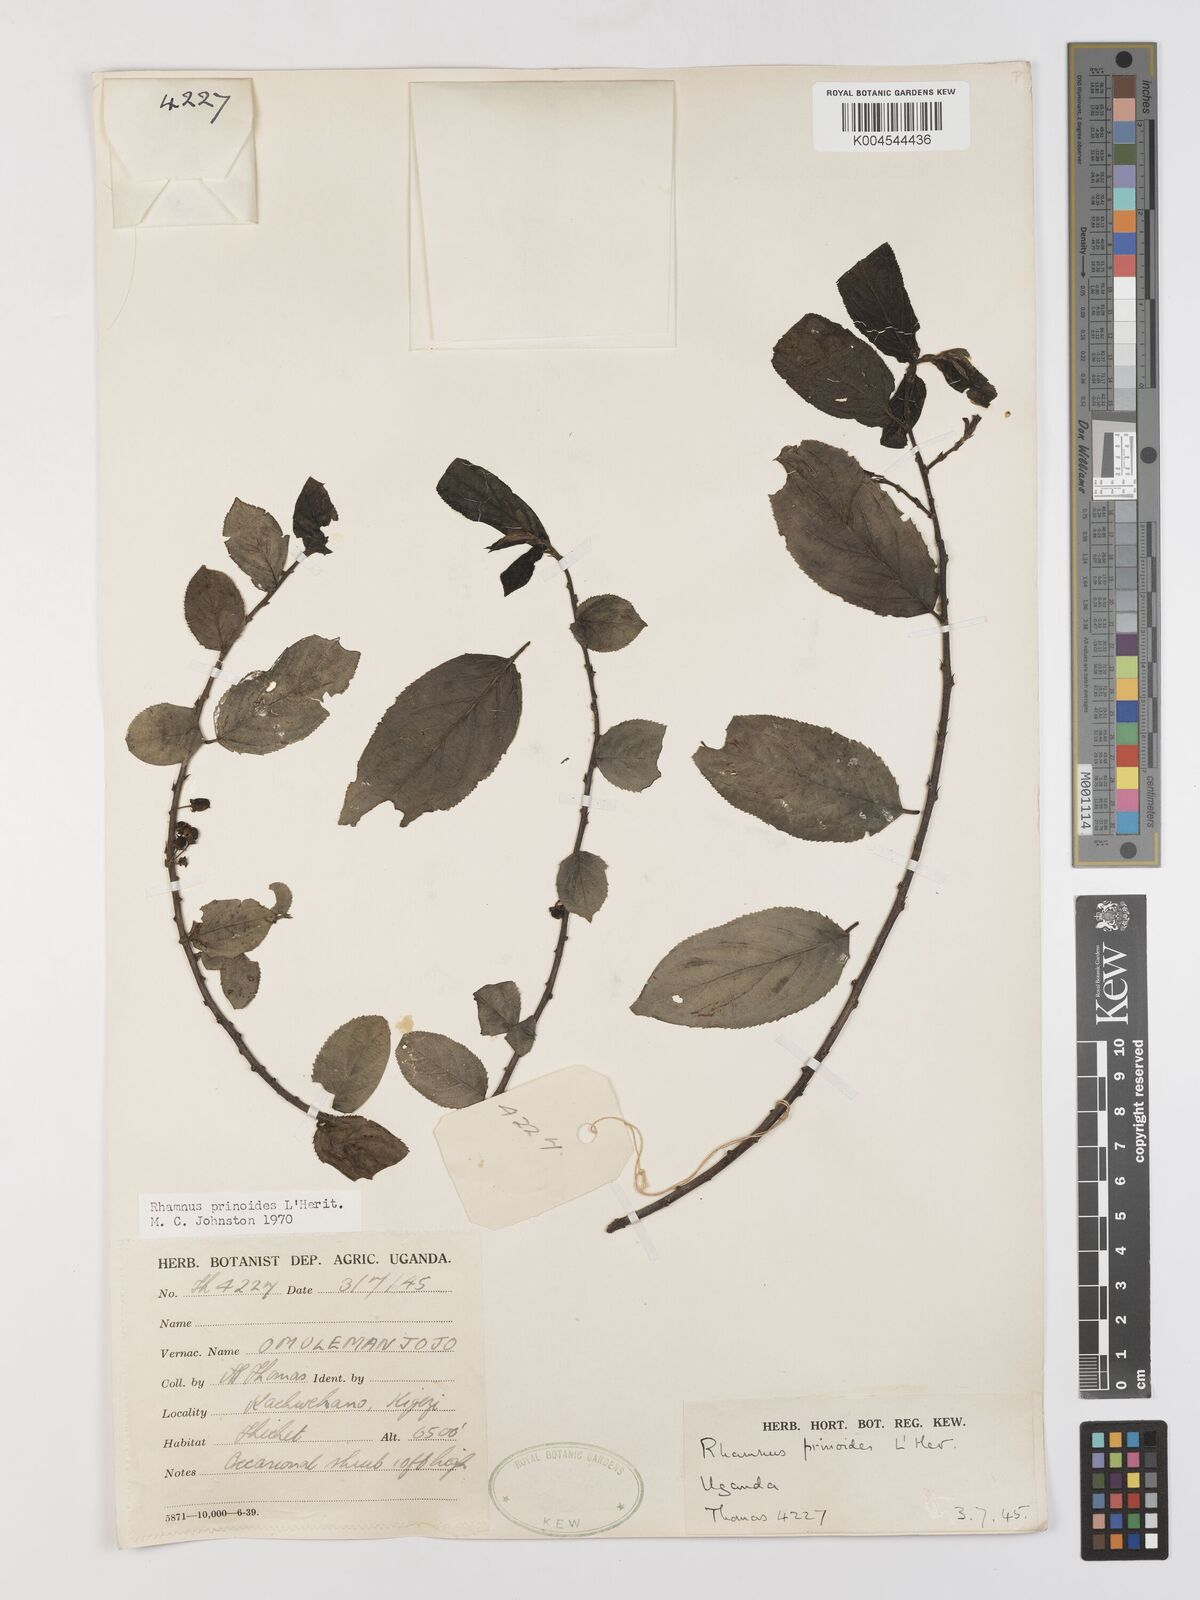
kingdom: Plantae
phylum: Tracheophyta
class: Magnoliopsida
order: Rosales
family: Rhamnaceae
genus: Rhamnus
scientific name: Rhamnus prinoides
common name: Dogwood
